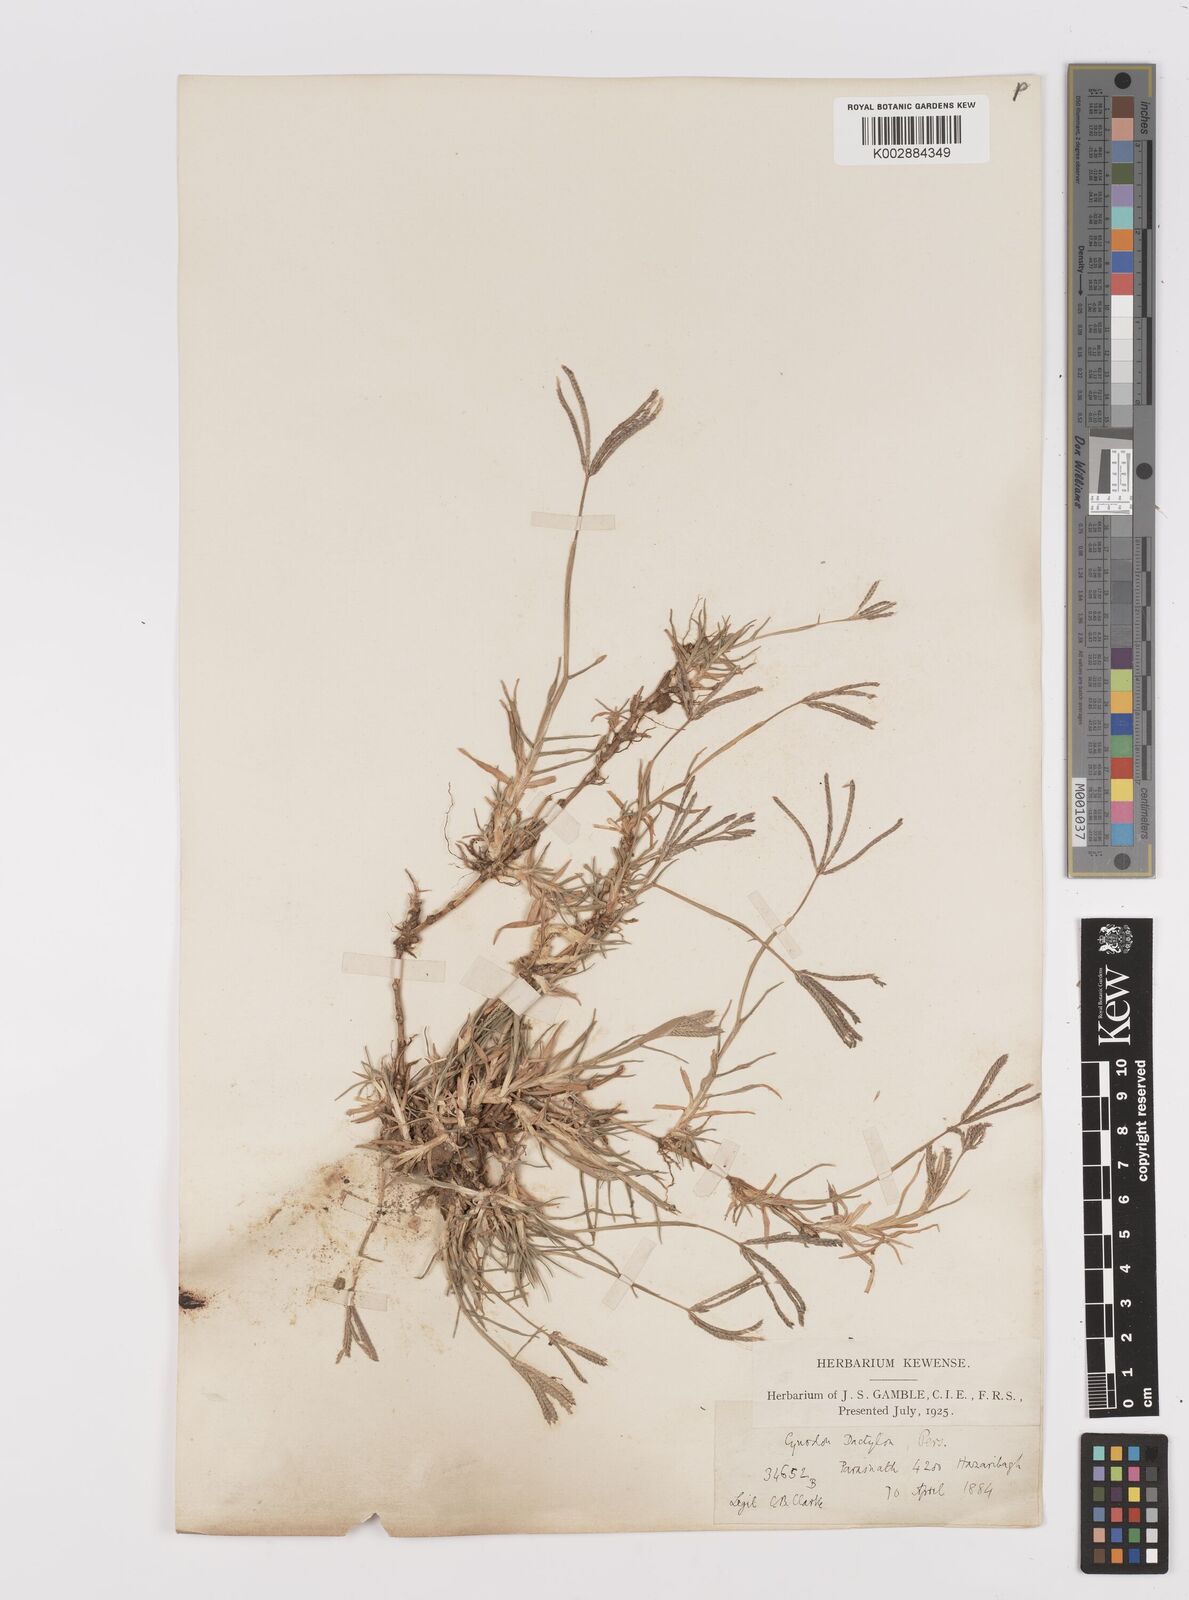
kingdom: Plantae
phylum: Tracheophyta
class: Liliopsida
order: Poales
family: Poaceae
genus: Cynodon
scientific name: Cynodon dactylon
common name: Bermuda grass
